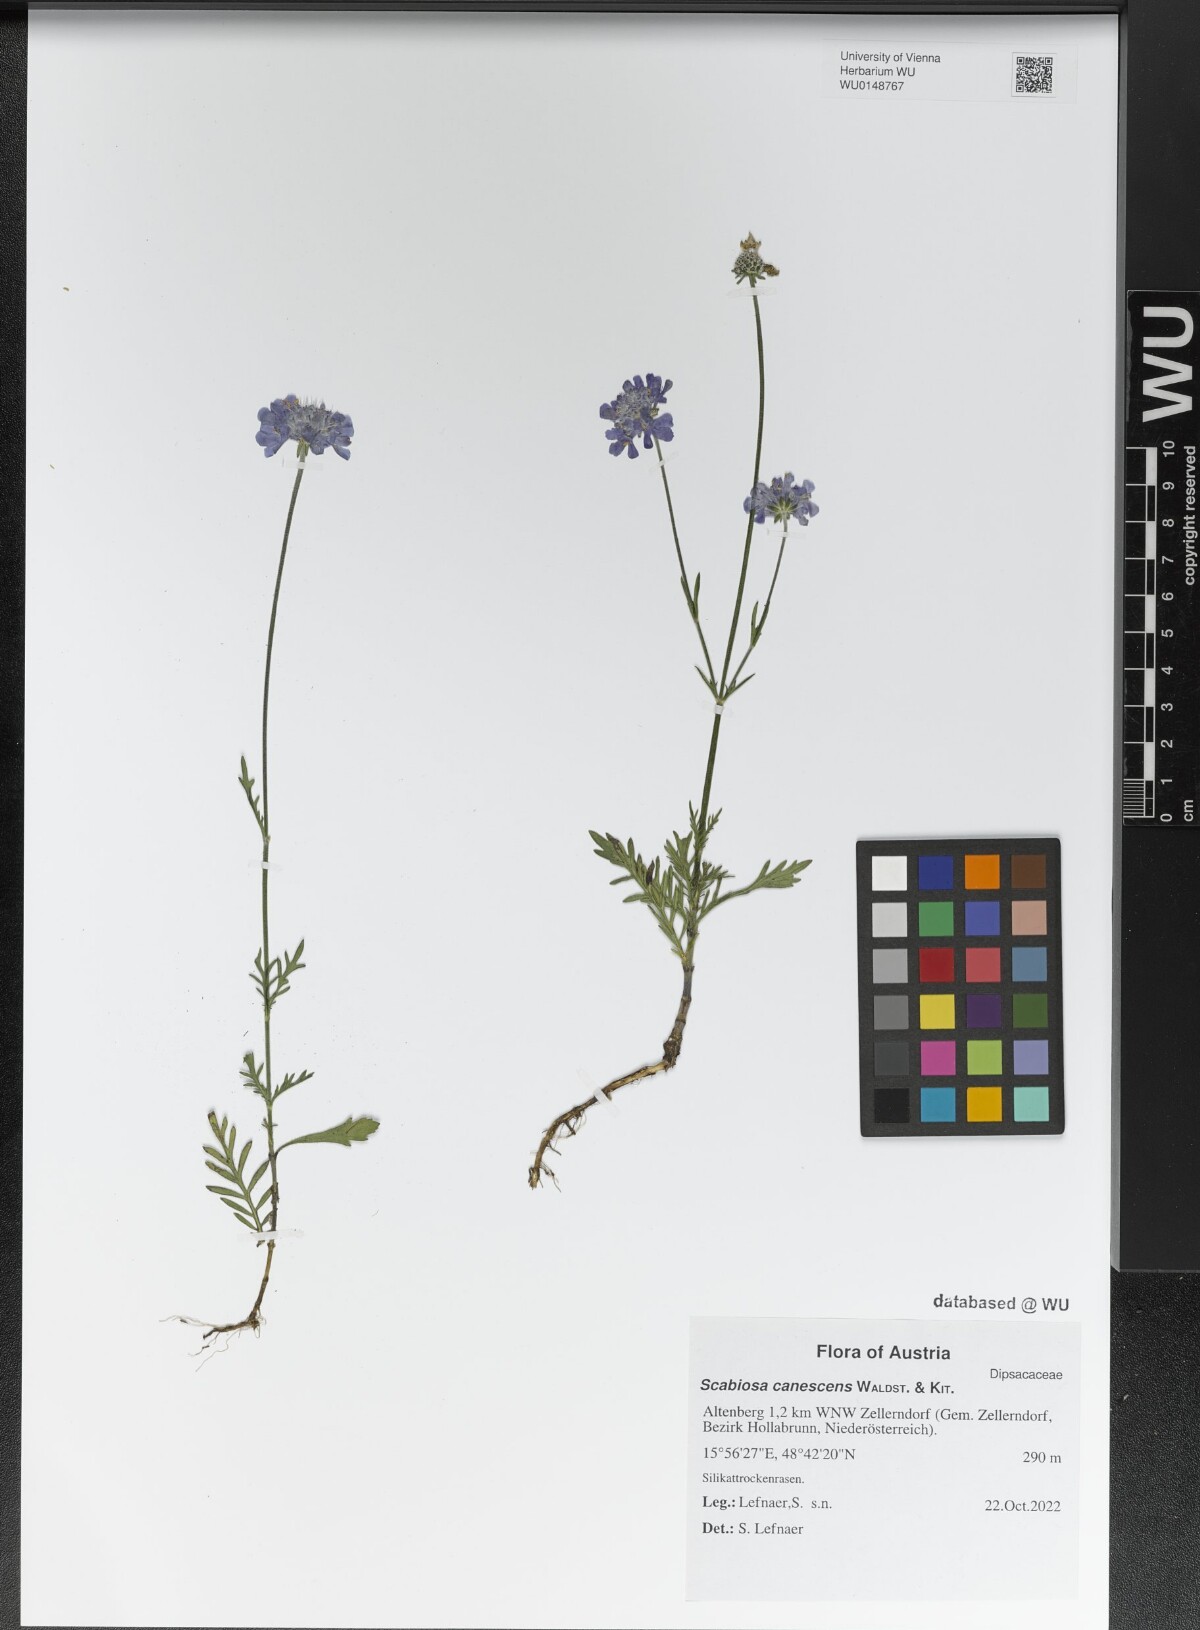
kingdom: Plantae
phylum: Tracheophyta
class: Magnoliopsida
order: Dipsacales
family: Caprifoliaceae
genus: Scabiosa
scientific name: Scabiosa canescens
